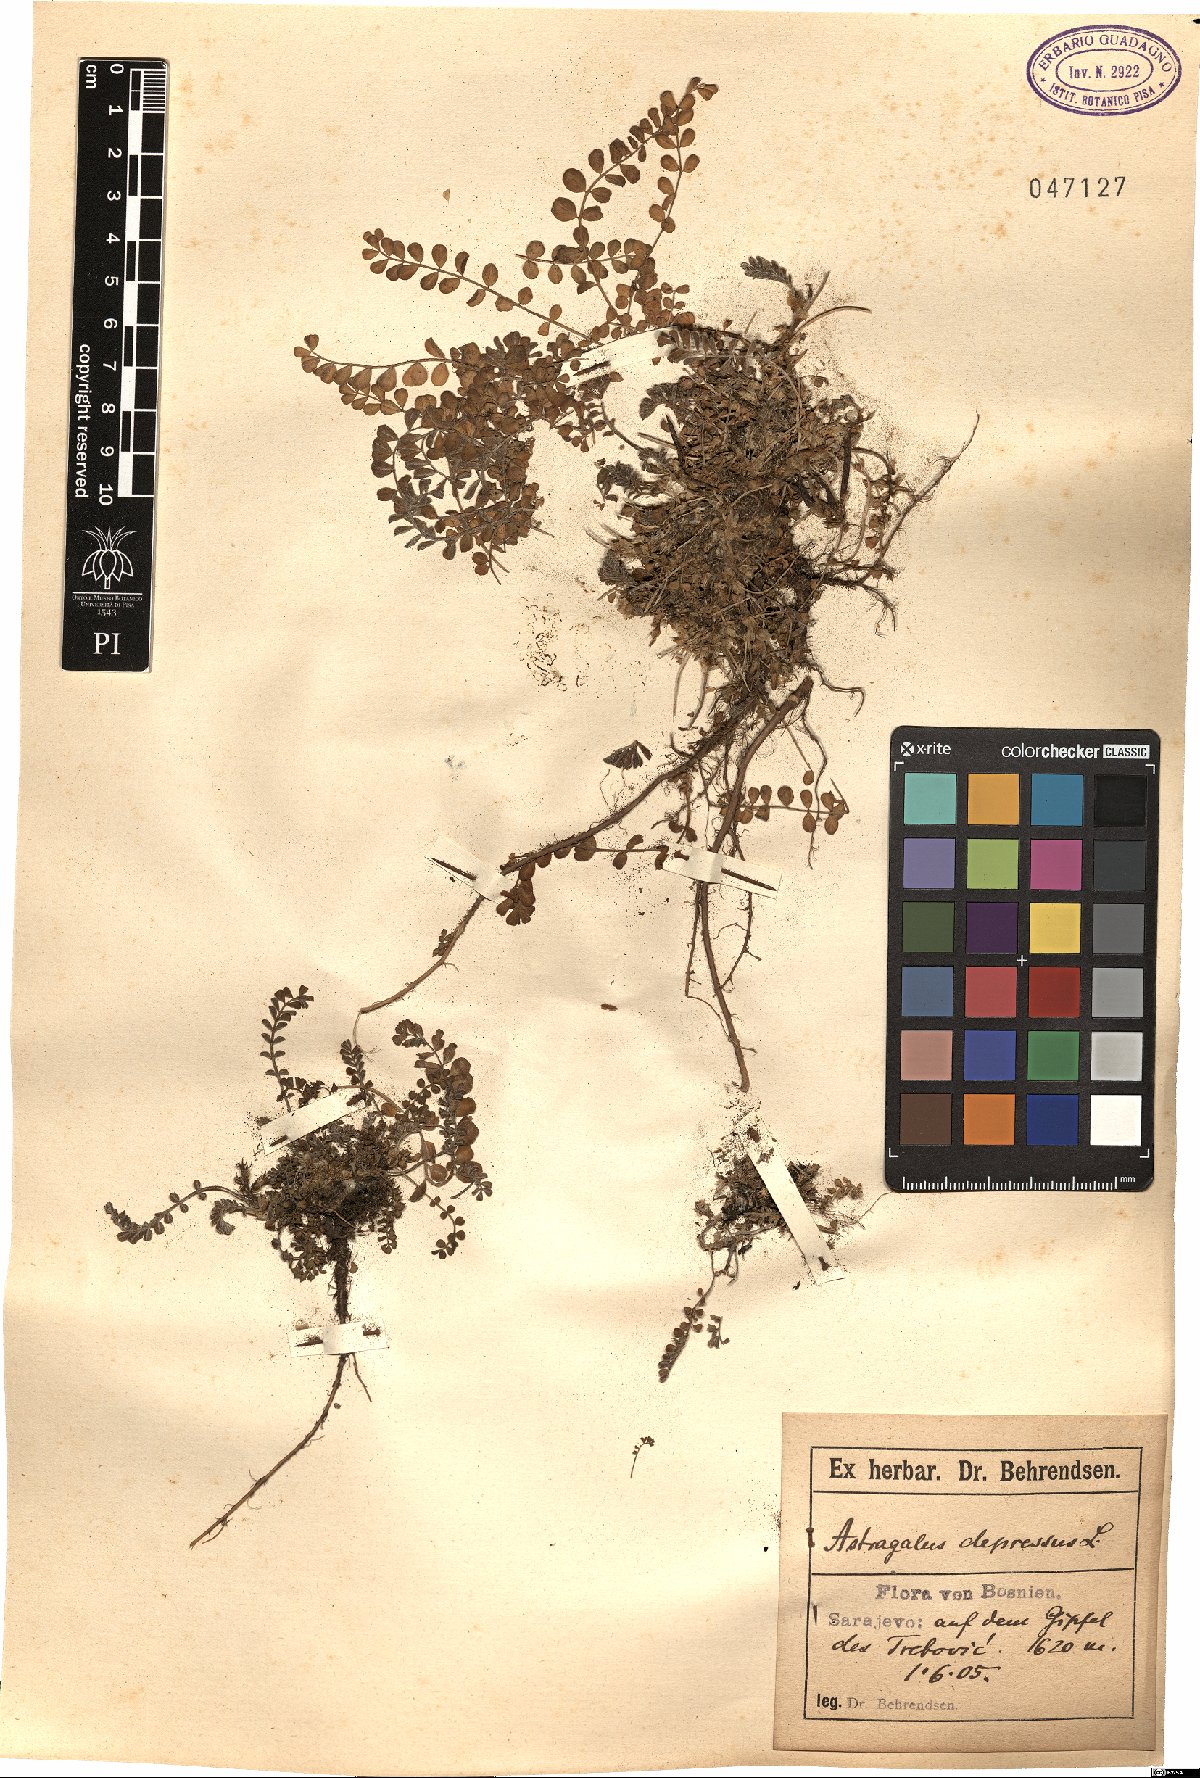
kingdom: Plantae
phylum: Tracheophyta
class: Magnoliopsida
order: Fabales
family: Fabaceae
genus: Astragalus
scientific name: Astragalus depressus
